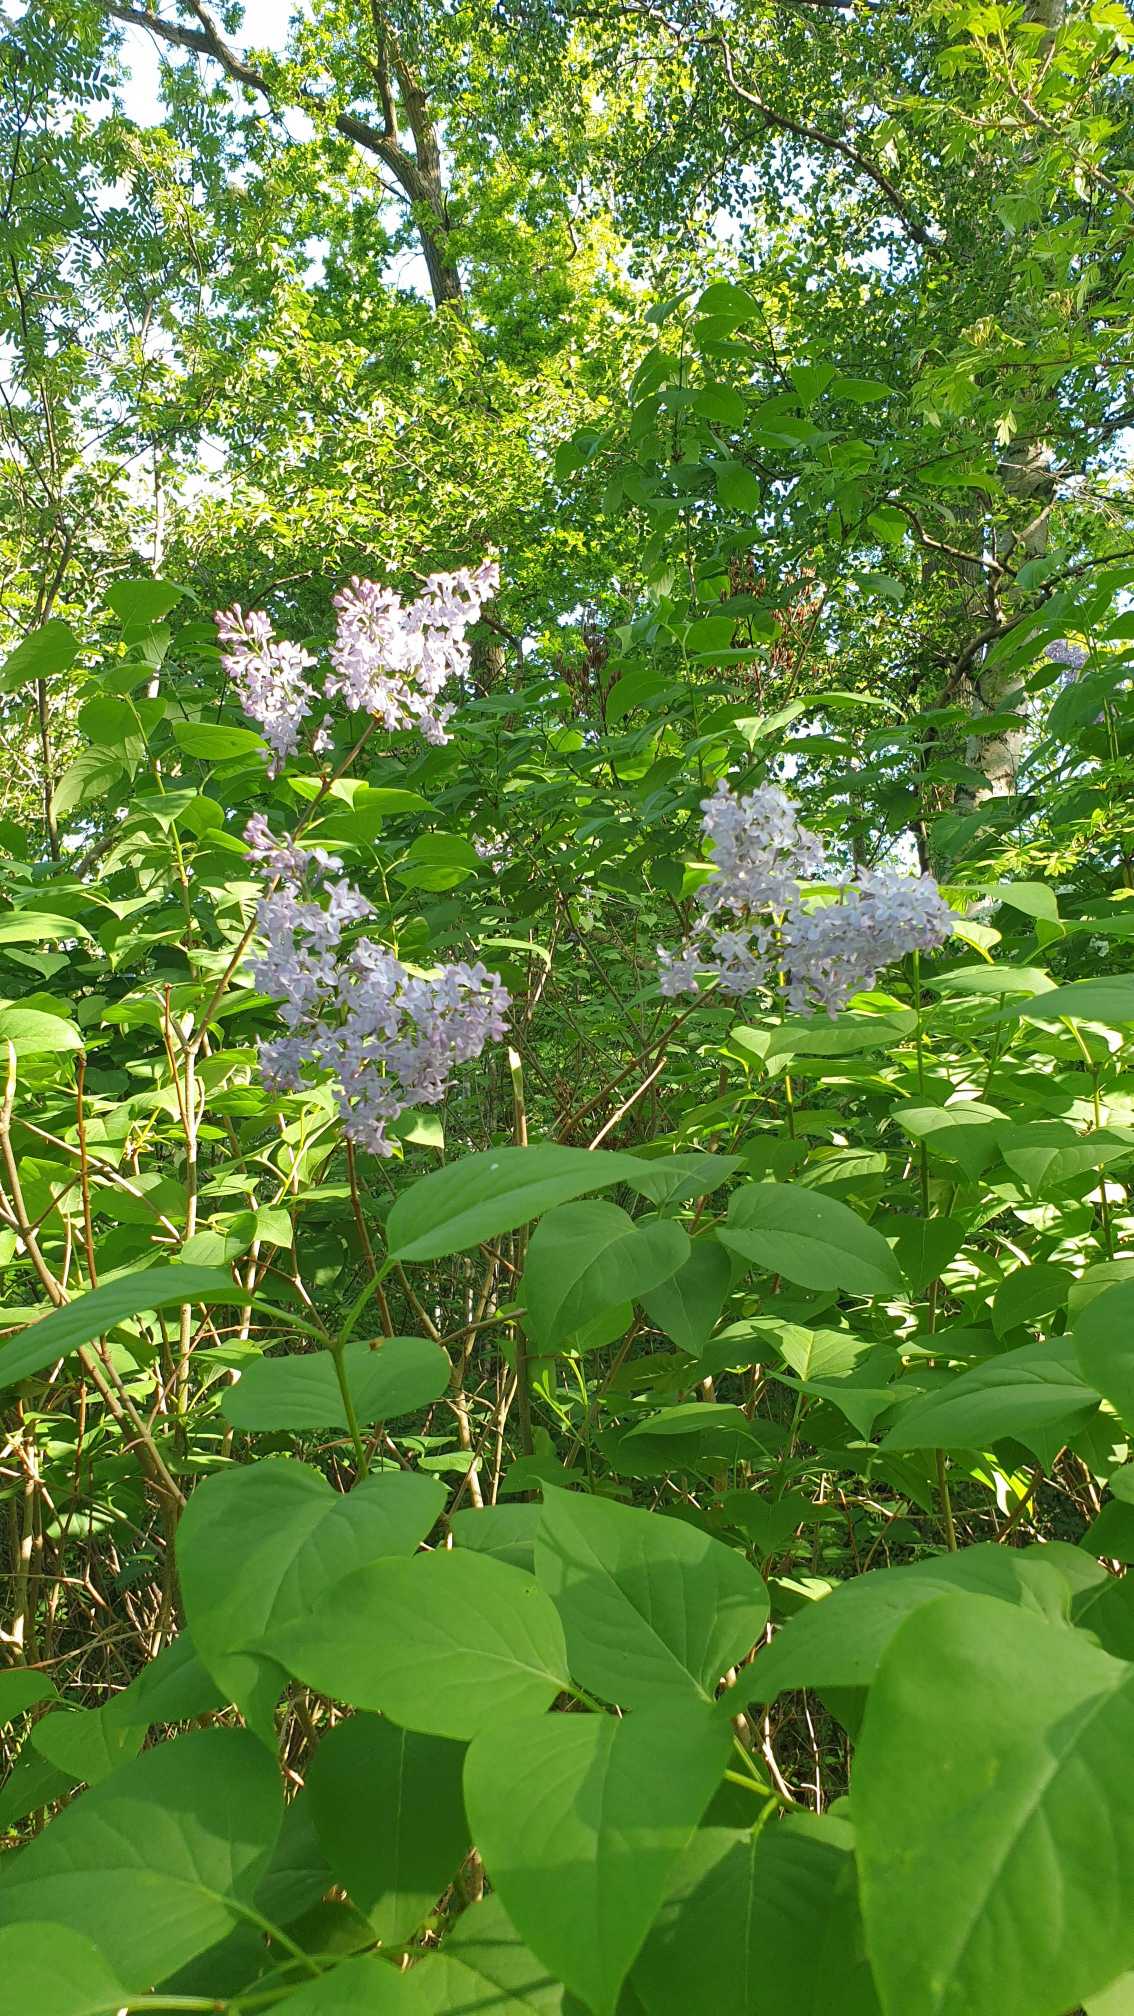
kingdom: Plantae
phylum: Tracheophyta
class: Magnoliopsida
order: Lamiales
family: Oleaceae
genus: Syringa
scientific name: Syringa vulgaris
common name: Syren
